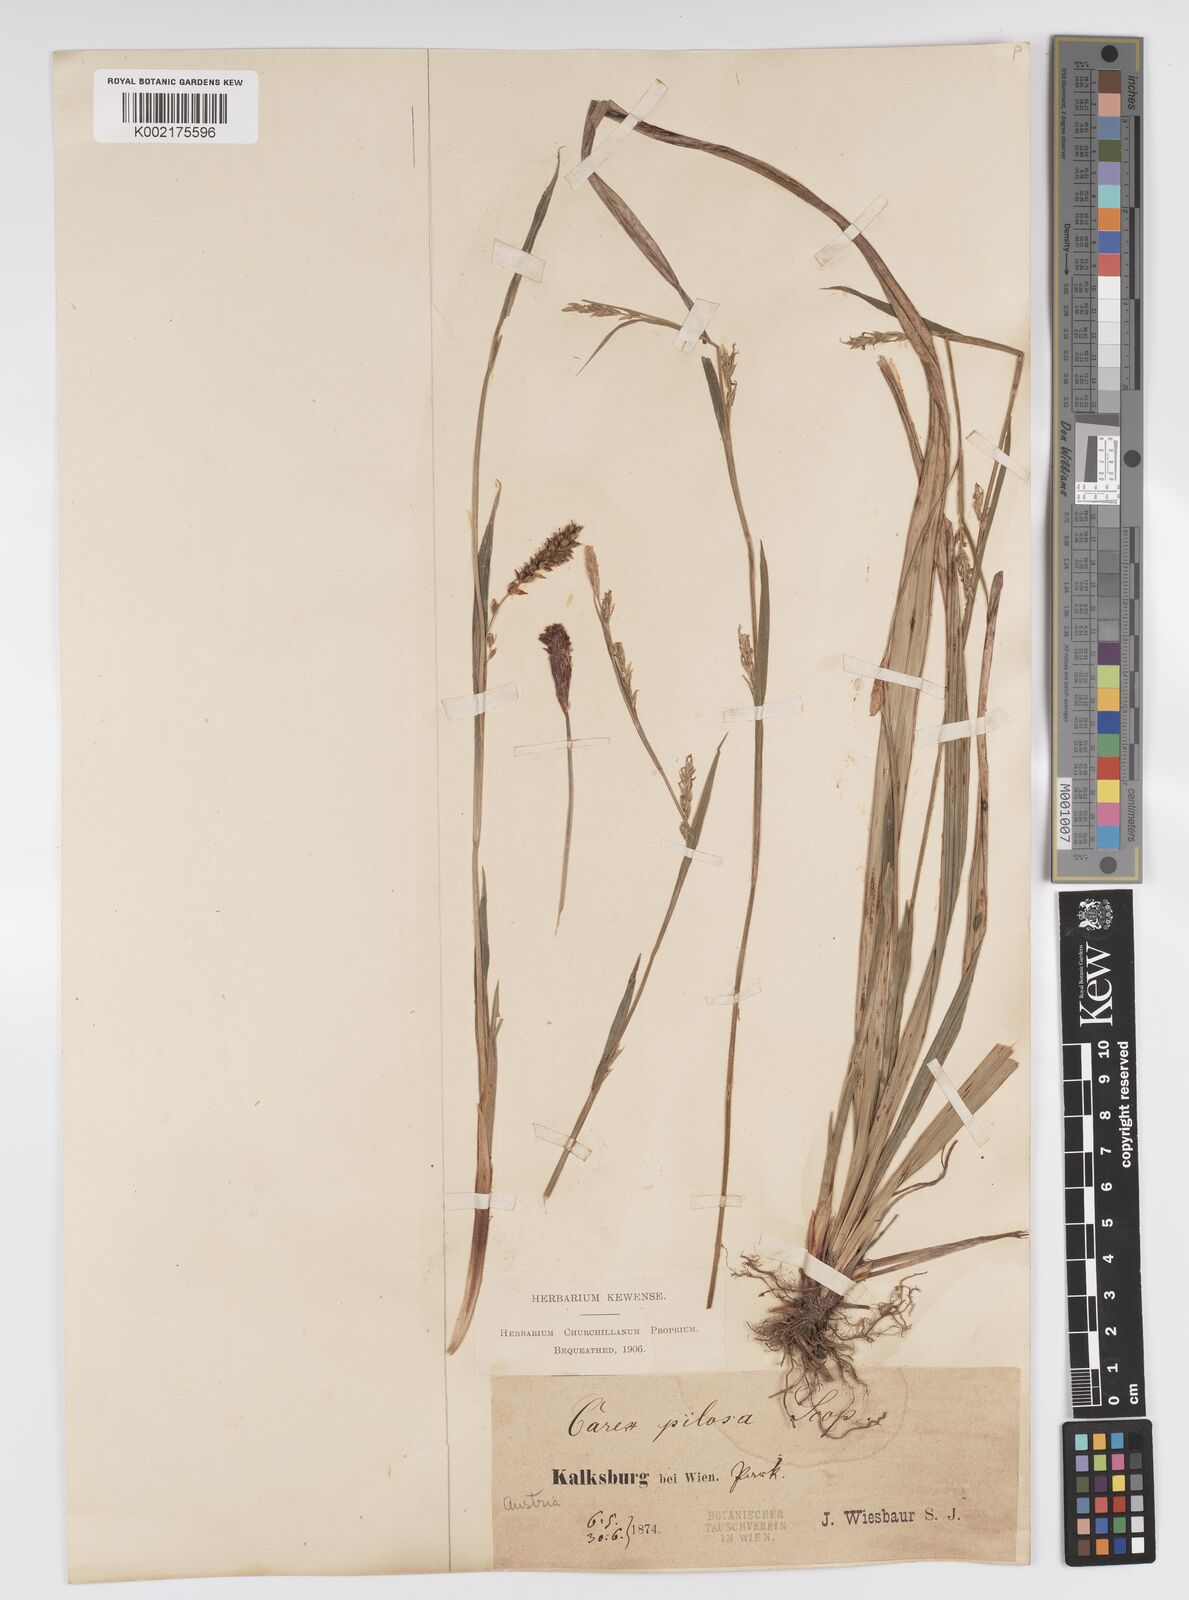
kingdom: Plantae
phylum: Tracheophyta
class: Liliopsida
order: Poales
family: Cyperaceae
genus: Carex
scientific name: Carex pilosa
